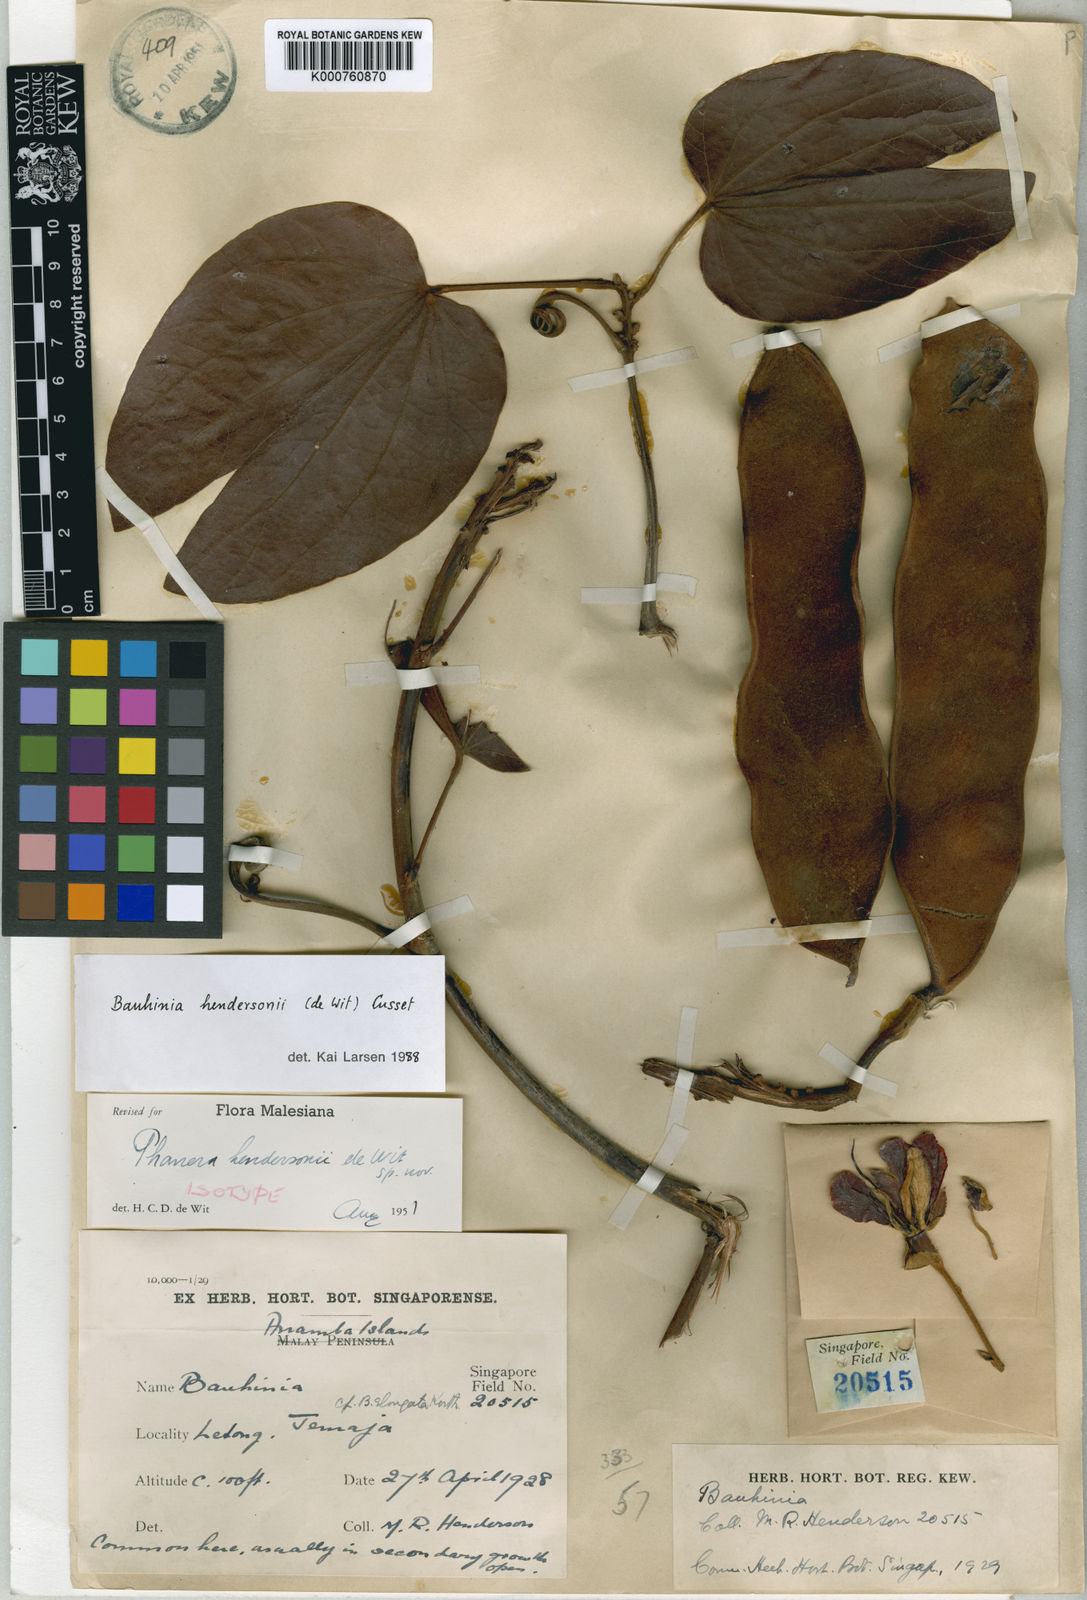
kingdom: Plantae
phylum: Tracheophyta
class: Magnoliopsida
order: Fabales
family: Fabaceae
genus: Phanera
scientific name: Phanera hendersonii
